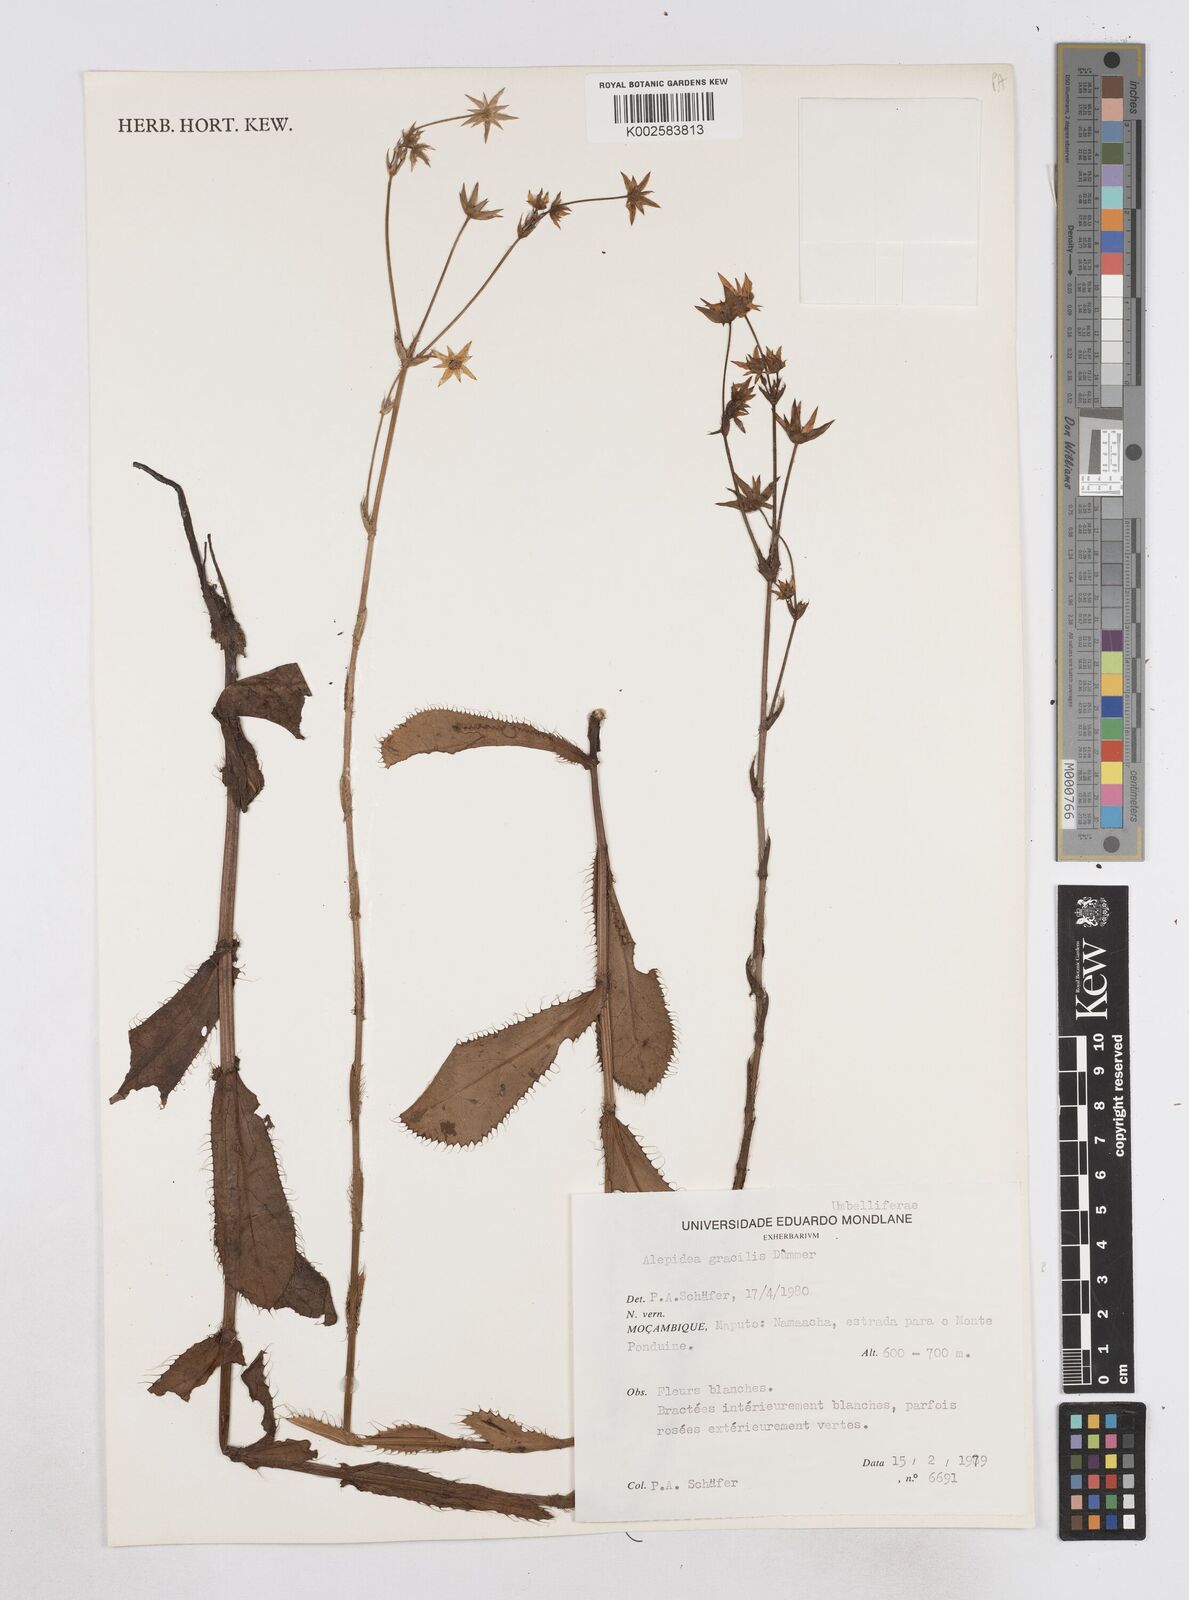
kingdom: Plantae
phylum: Tracheophyta
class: Magnoliopsida
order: Apiales
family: Apiaceae
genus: Alepidea
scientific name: Alepidea peduncularis
